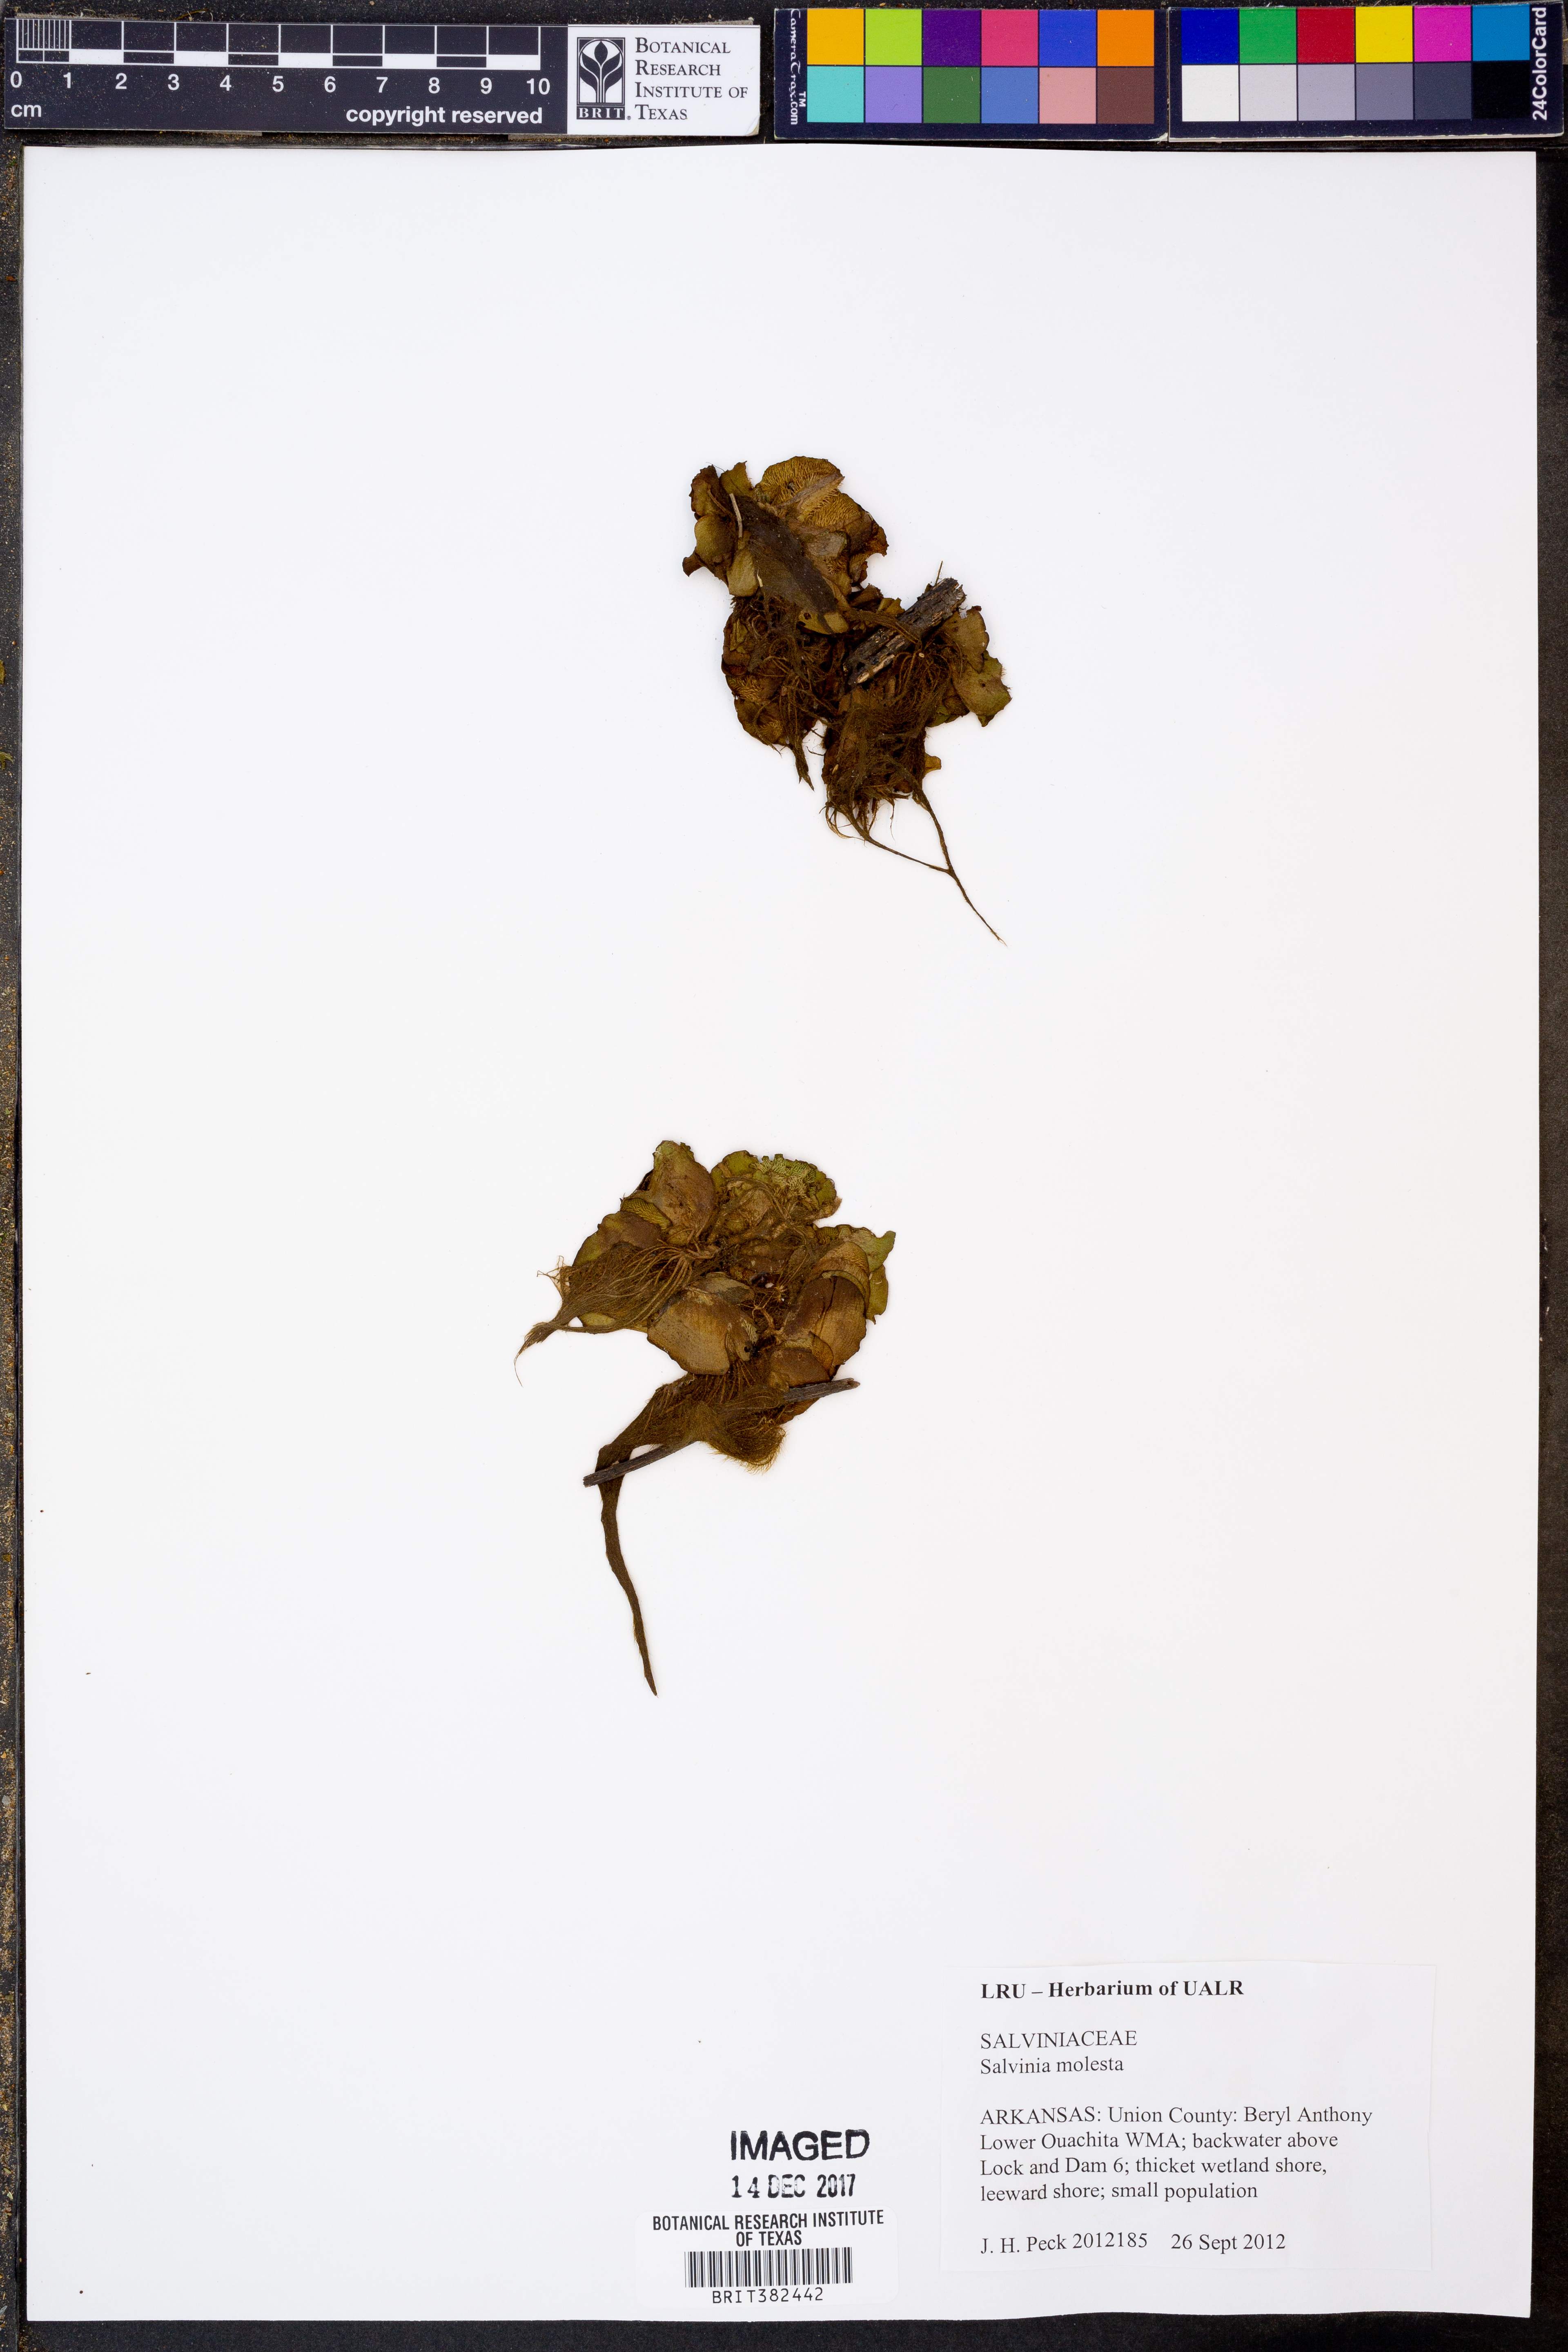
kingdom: Plantae
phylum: Tracheophyta
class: Polypodiopsida
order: Salviniales
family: Salviniaceae
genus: Salvinia
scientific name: Salvinia molesta
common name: Kariba weed
